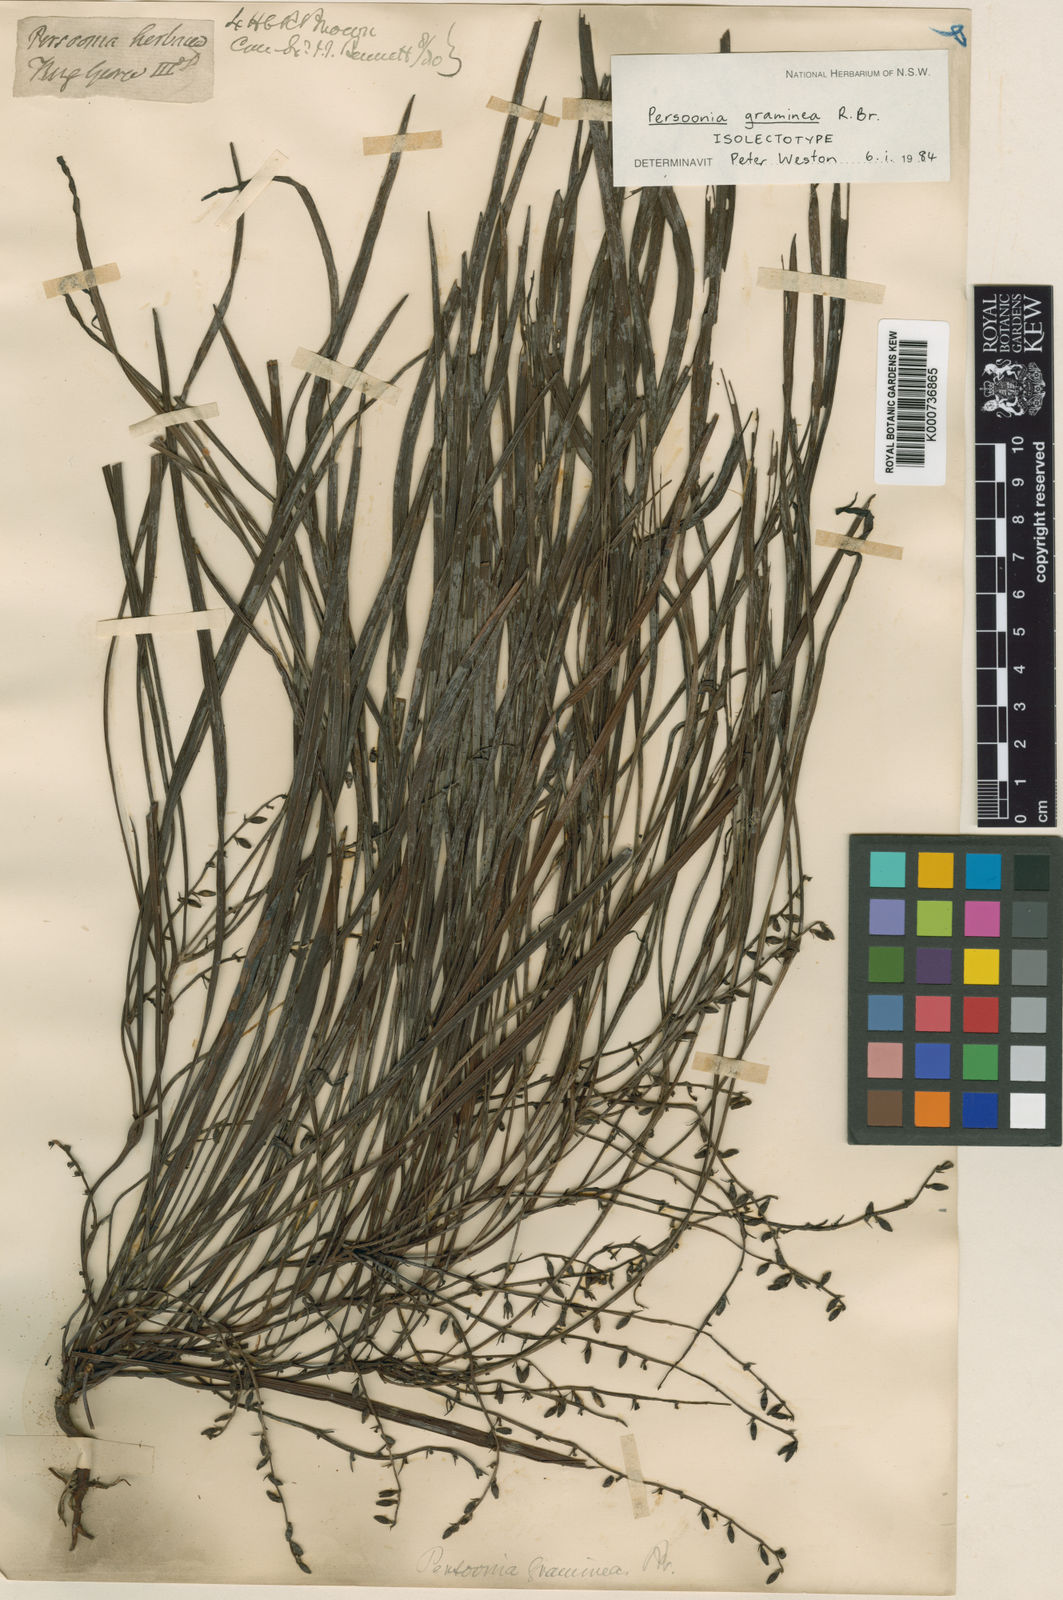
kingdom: Plantae
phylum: Tracheophyta
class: Magnoliopsida
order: Proteales
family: Proteaceae
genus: Persoonia
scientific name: Persoonia graminea
